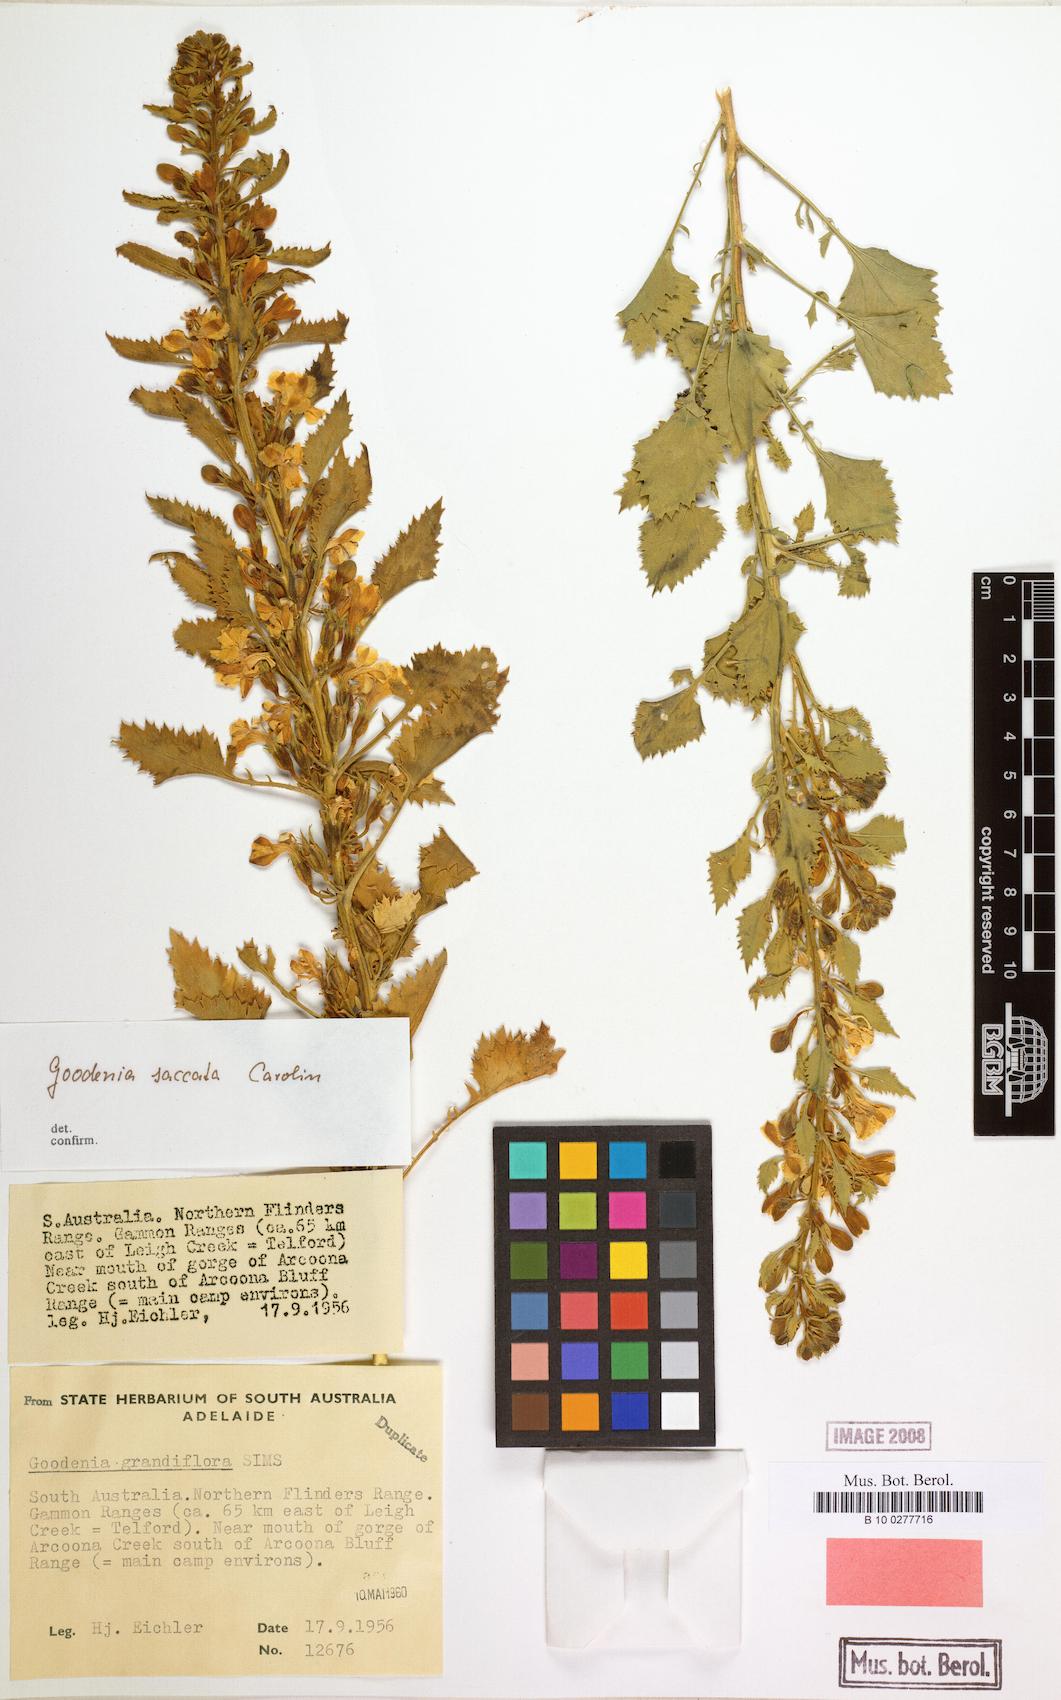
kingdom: Plantae
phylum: Tracheophyta
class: Magnoliopsida
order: Asterales
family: Goodeniaceae
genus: Goodenia
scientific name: Goodenia saccata
